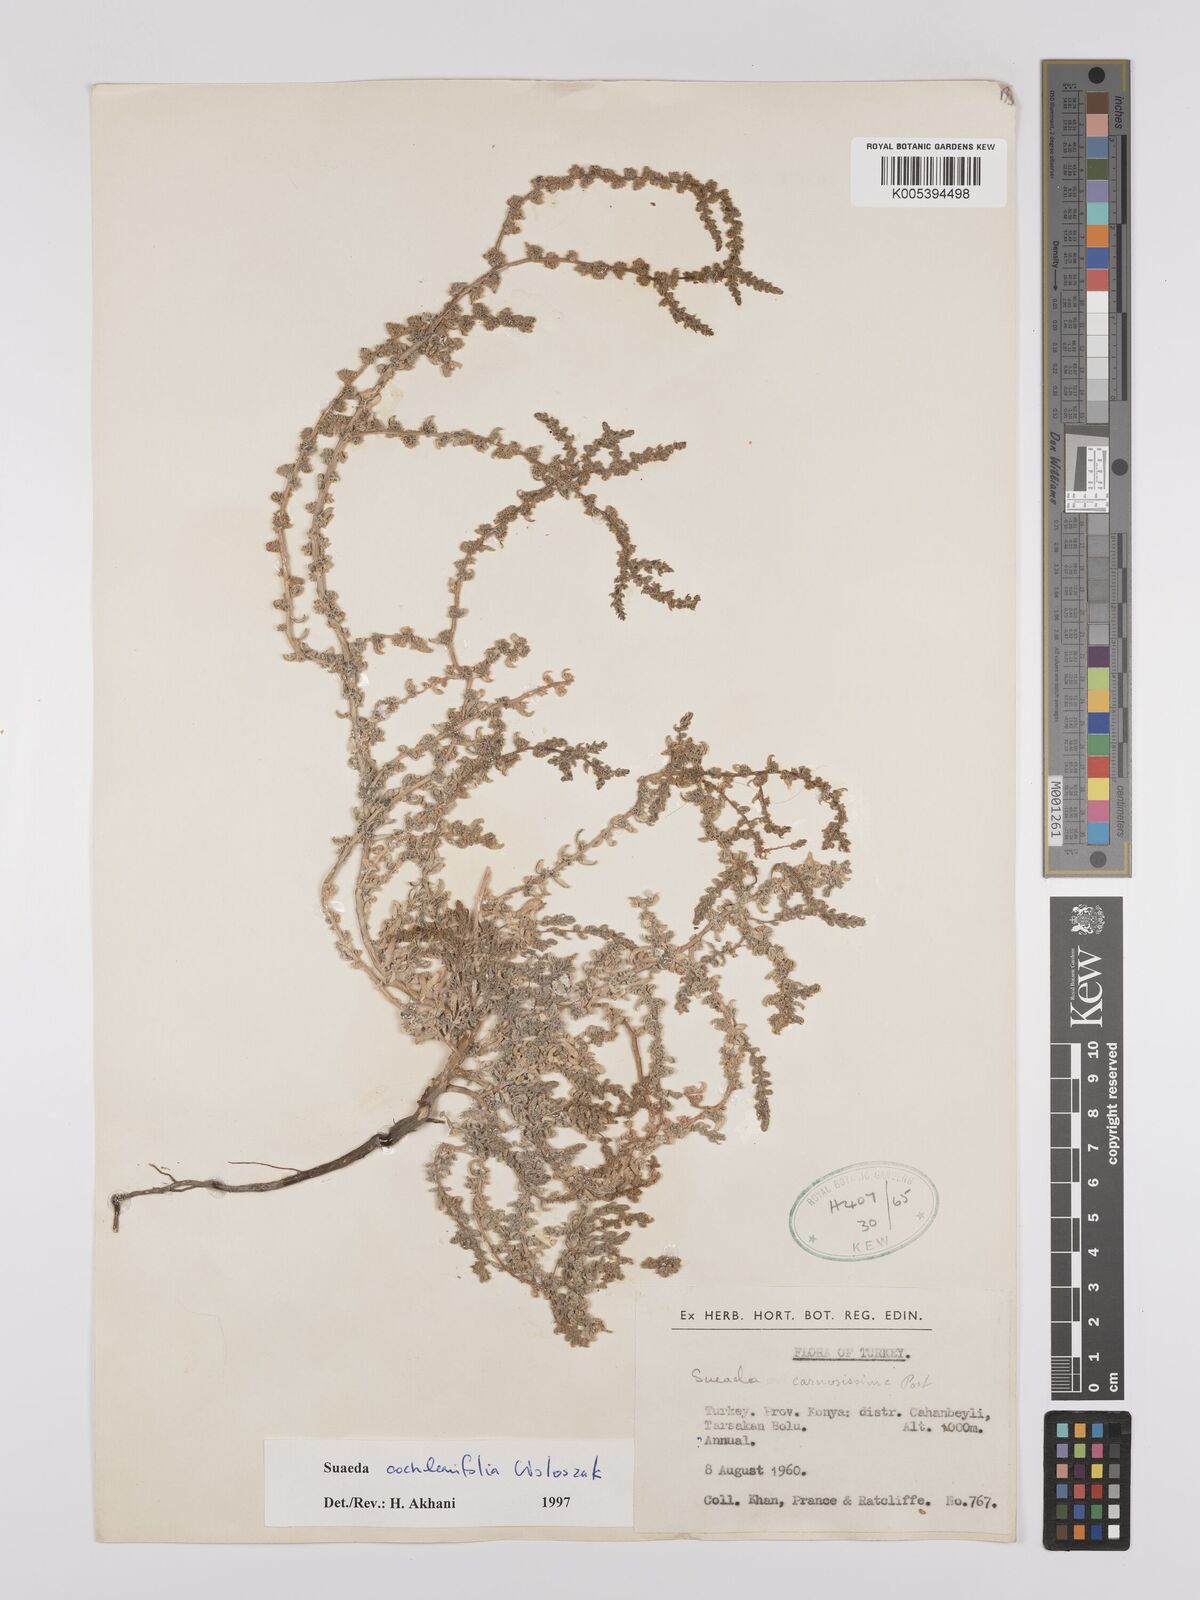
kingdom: Plantae
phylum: Tracheophyta
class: Magnoliopsida
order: Caryophyllales
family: Amaranthaceae
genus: Suaeda
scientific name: Suaeda carnosissima
